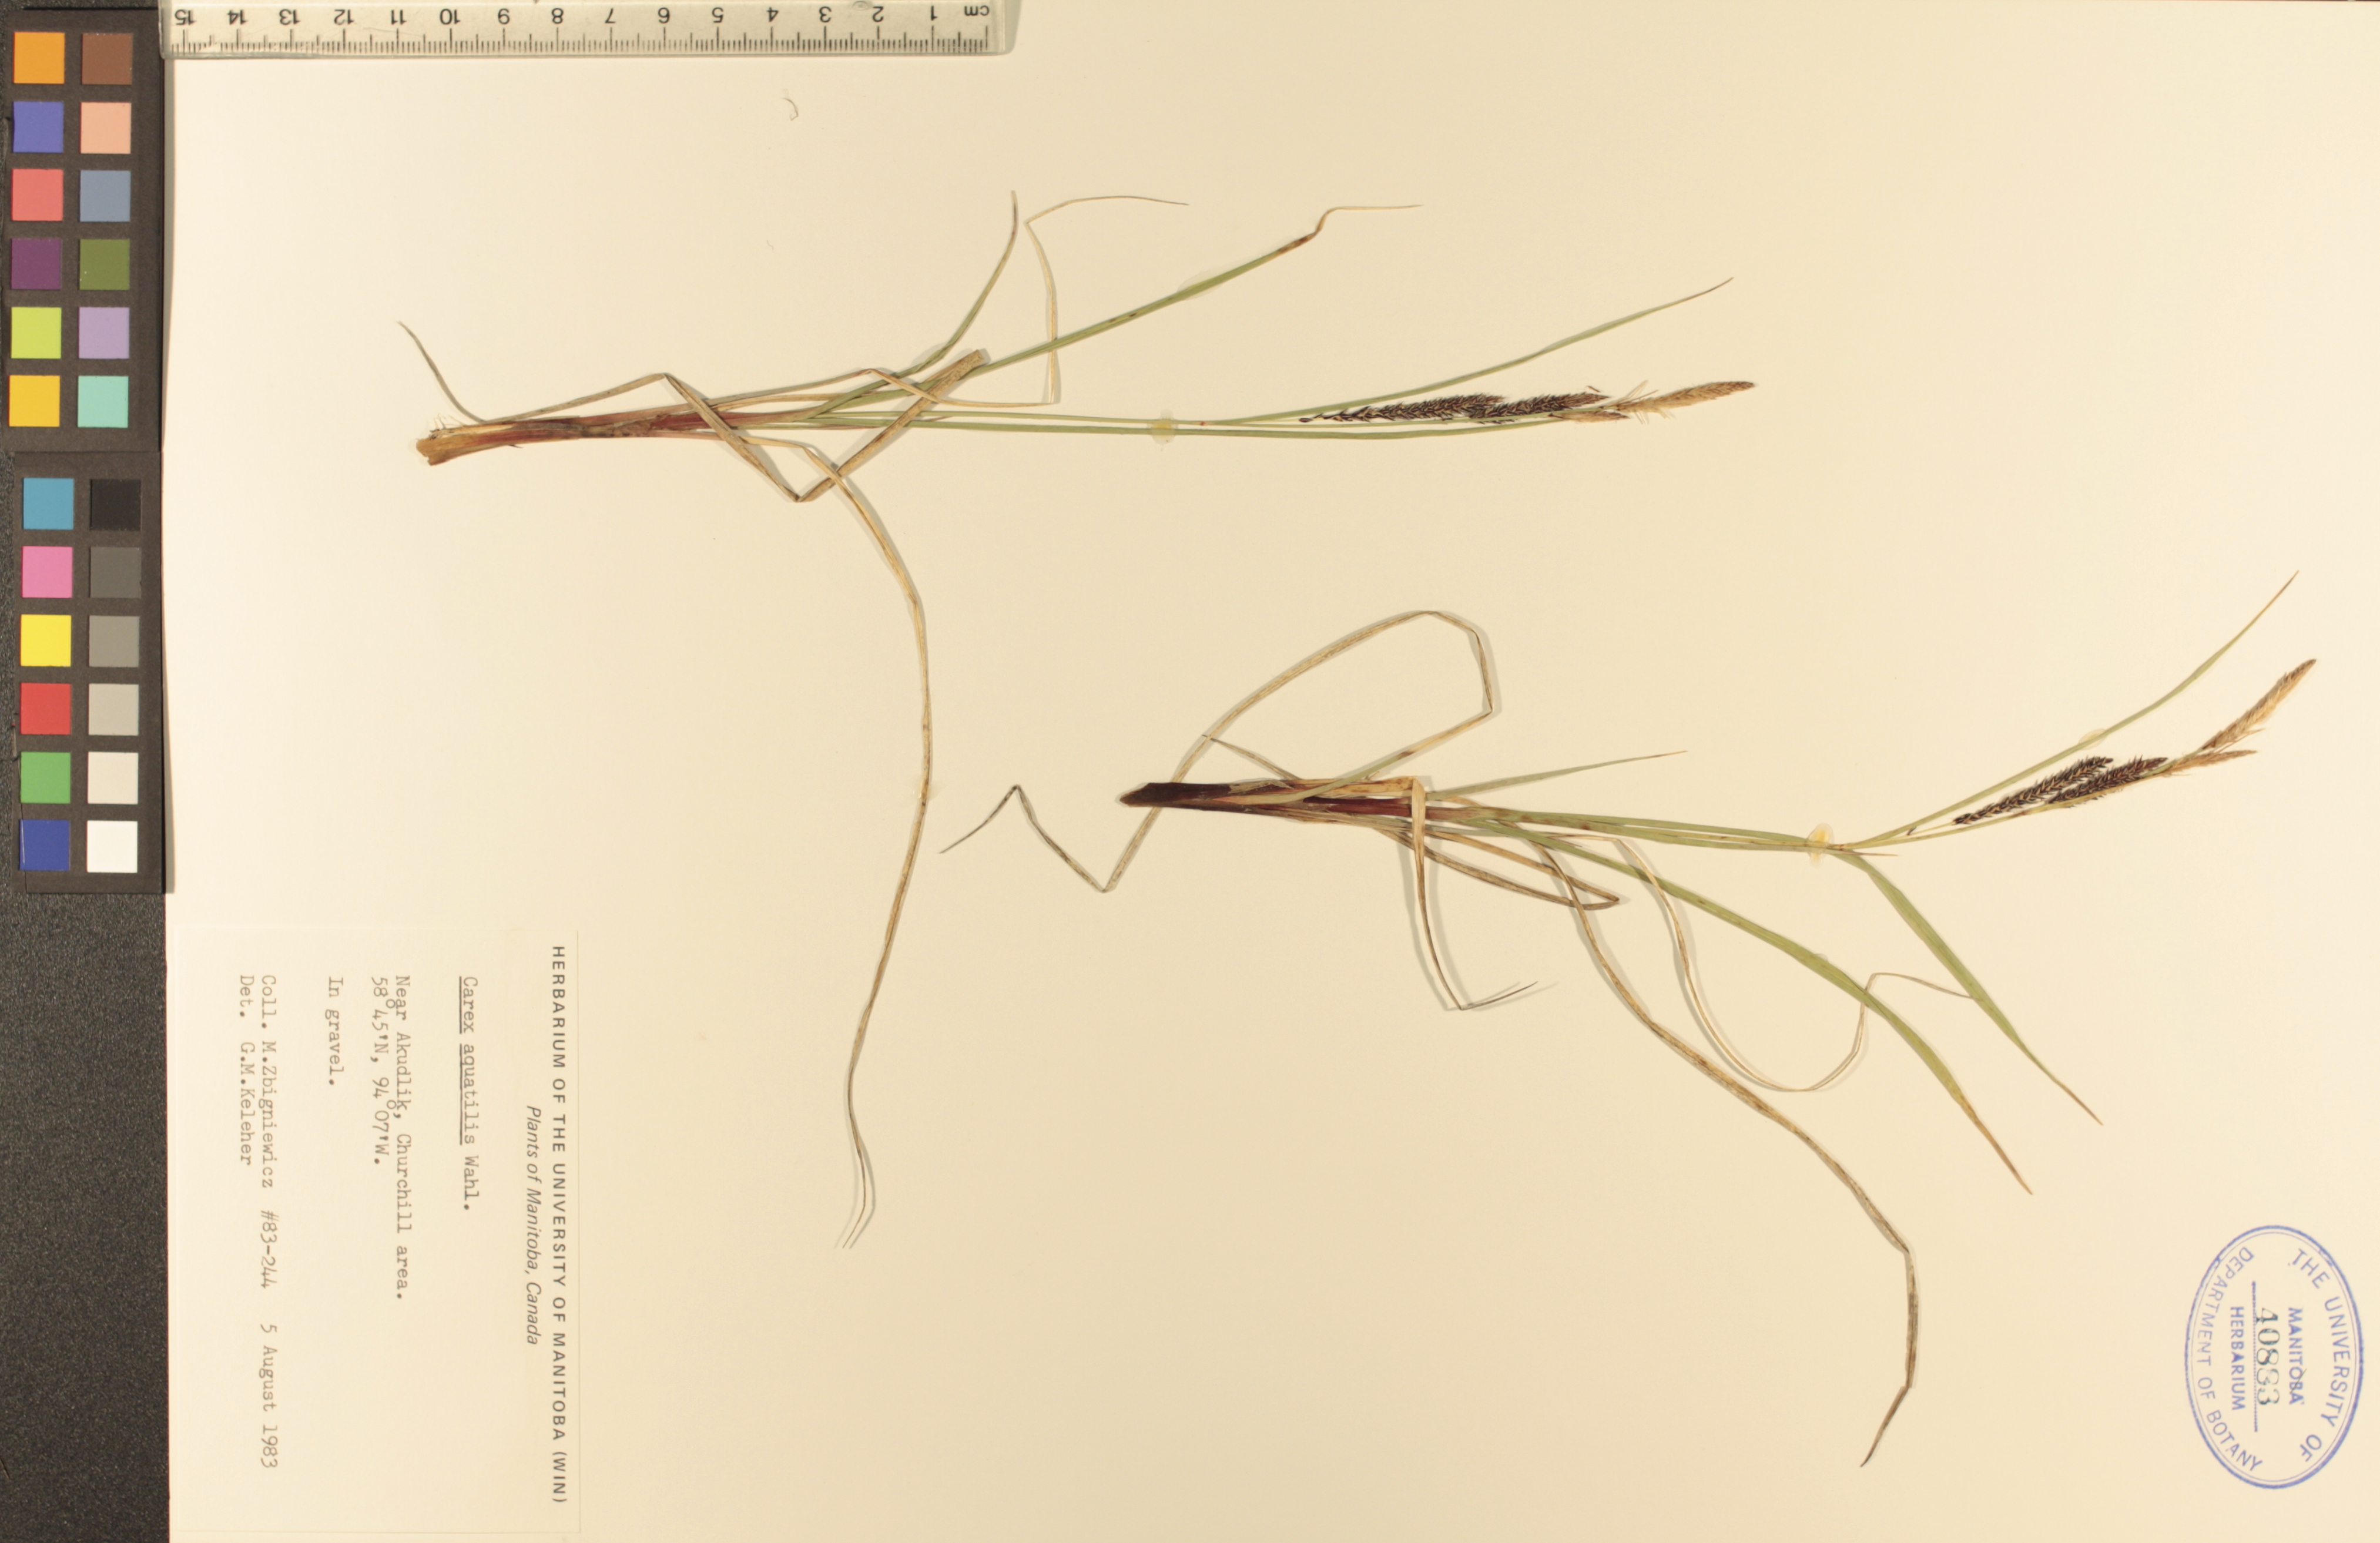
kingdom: Plantae
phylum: Tracheophyta
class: Liliopsida
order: Poales
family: Cyperaceae
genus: Carex
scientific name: Carex aquatilis
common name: Water sedge
